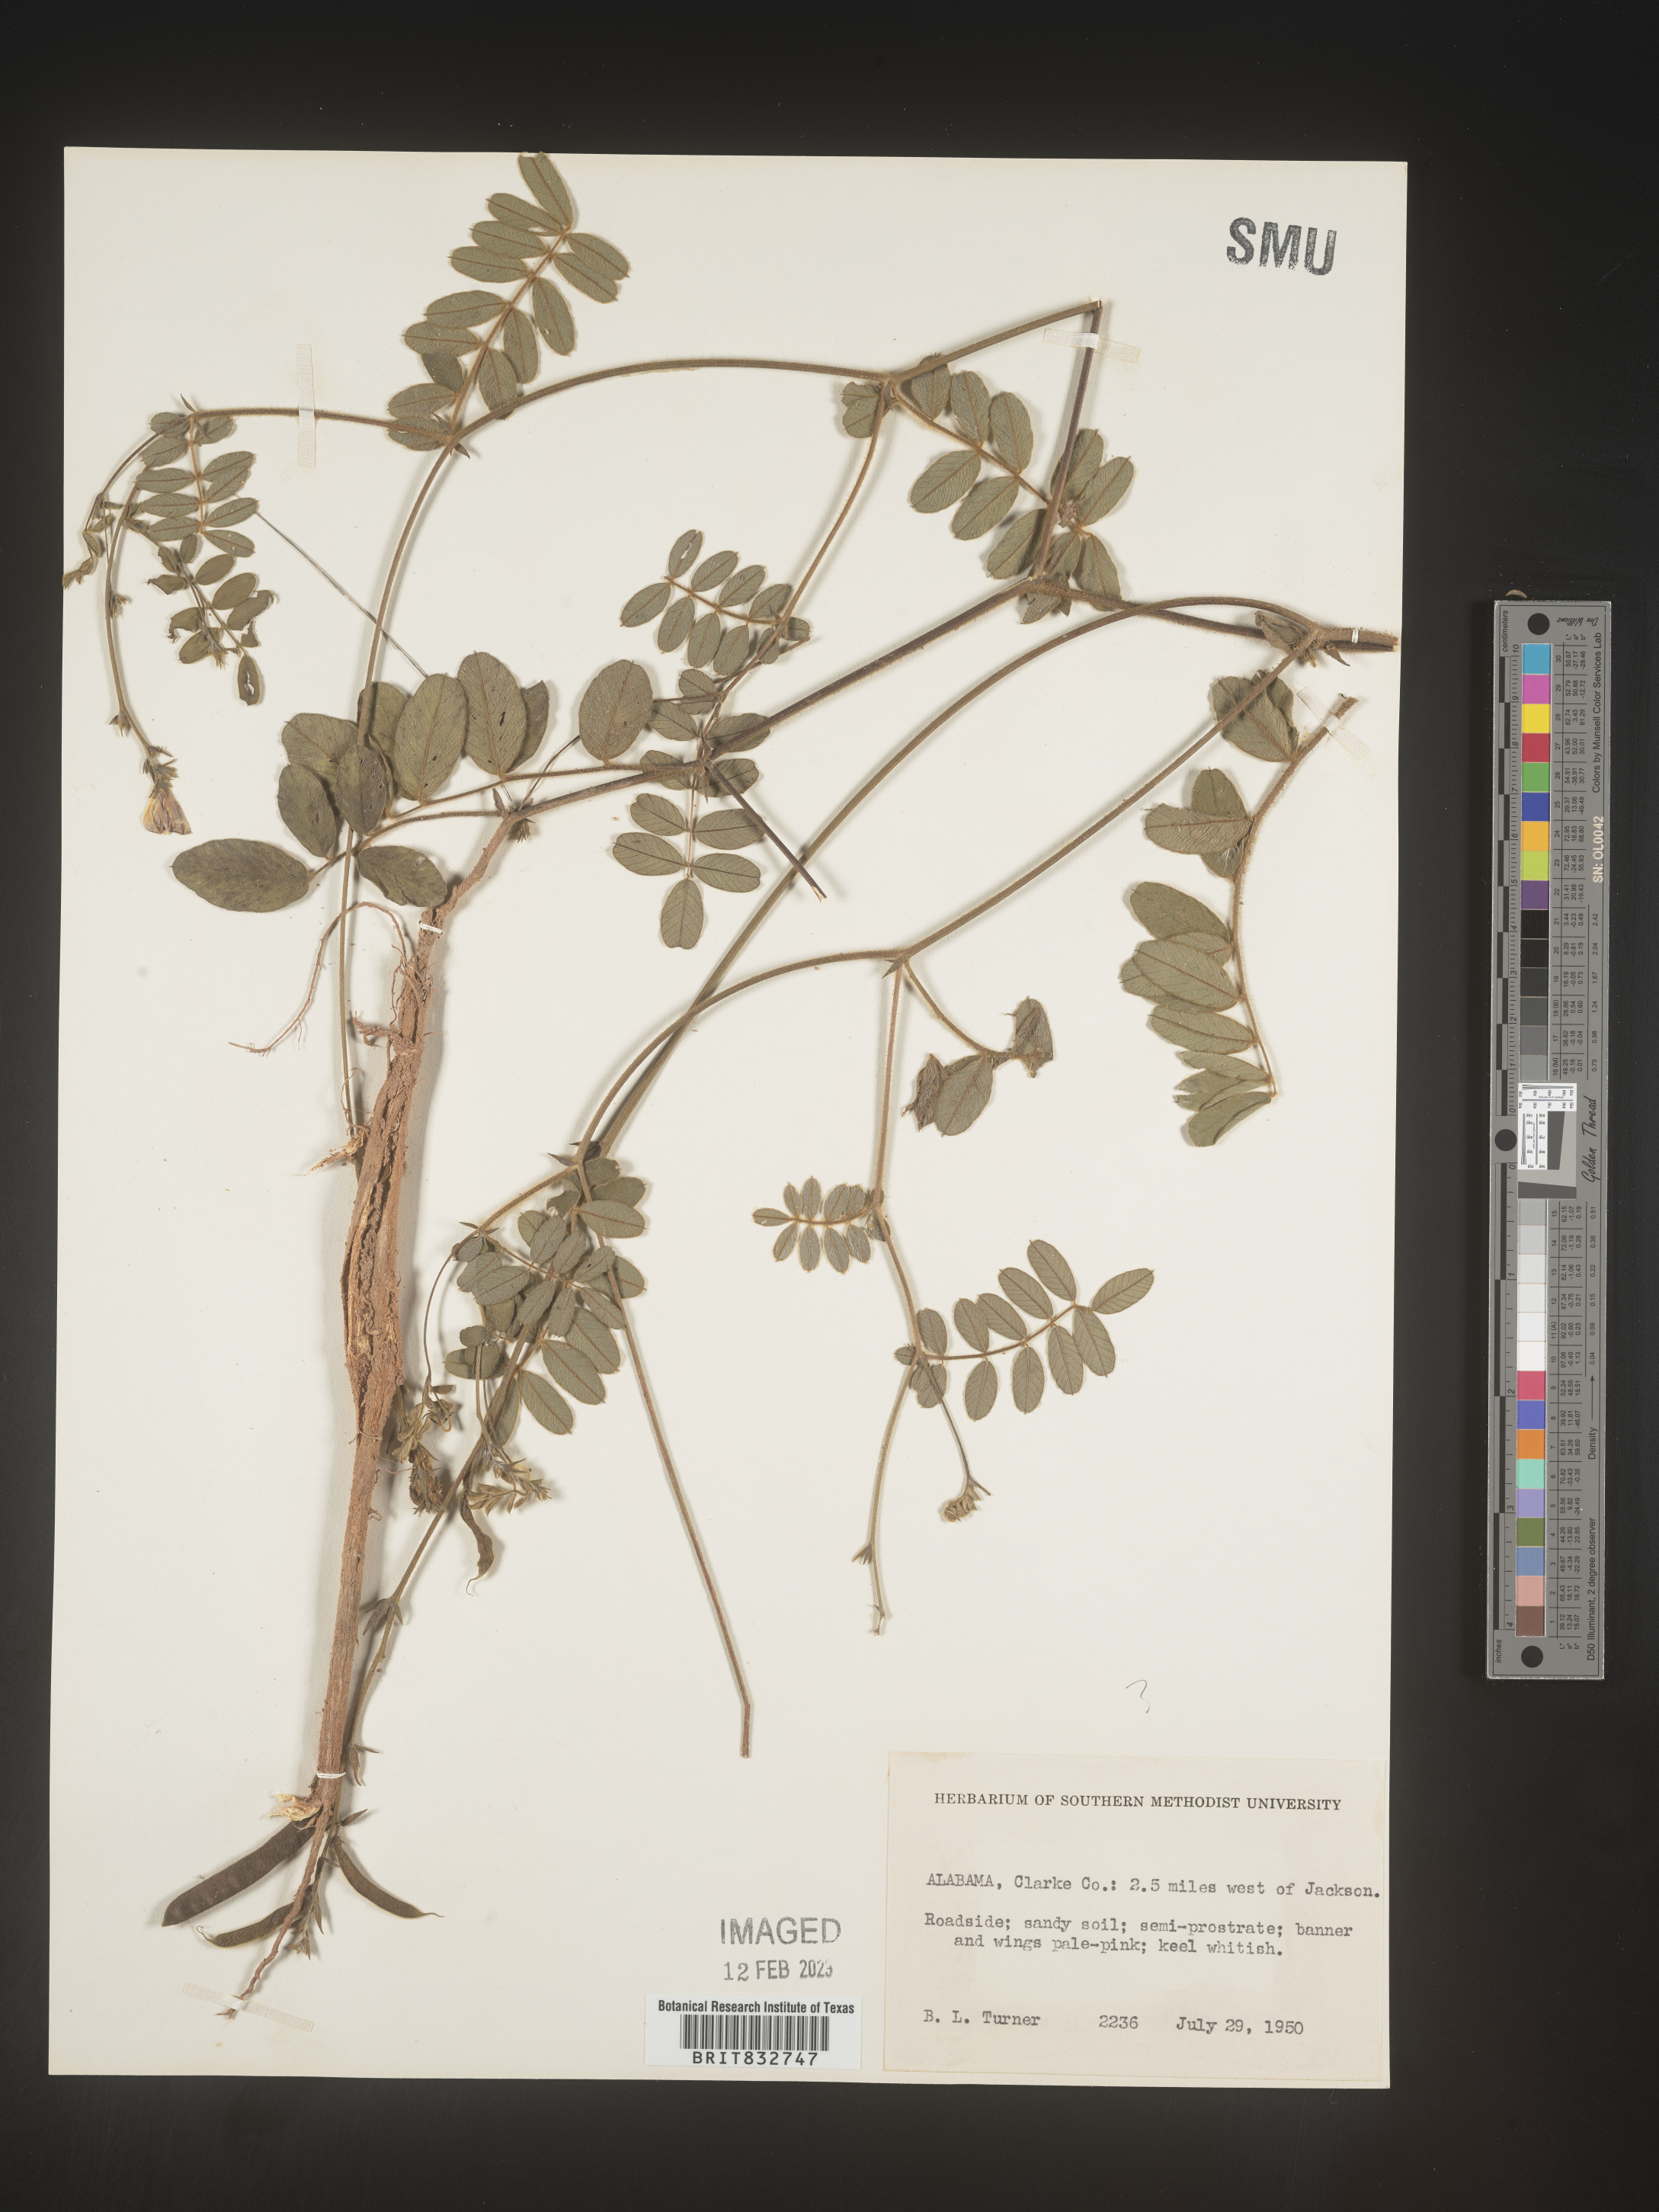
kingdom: Plantae
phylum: Tracheophyta
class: Magnoliopsida
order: Fabales
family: Fabaceae
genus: Tephrosia
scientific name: Tephrosia
